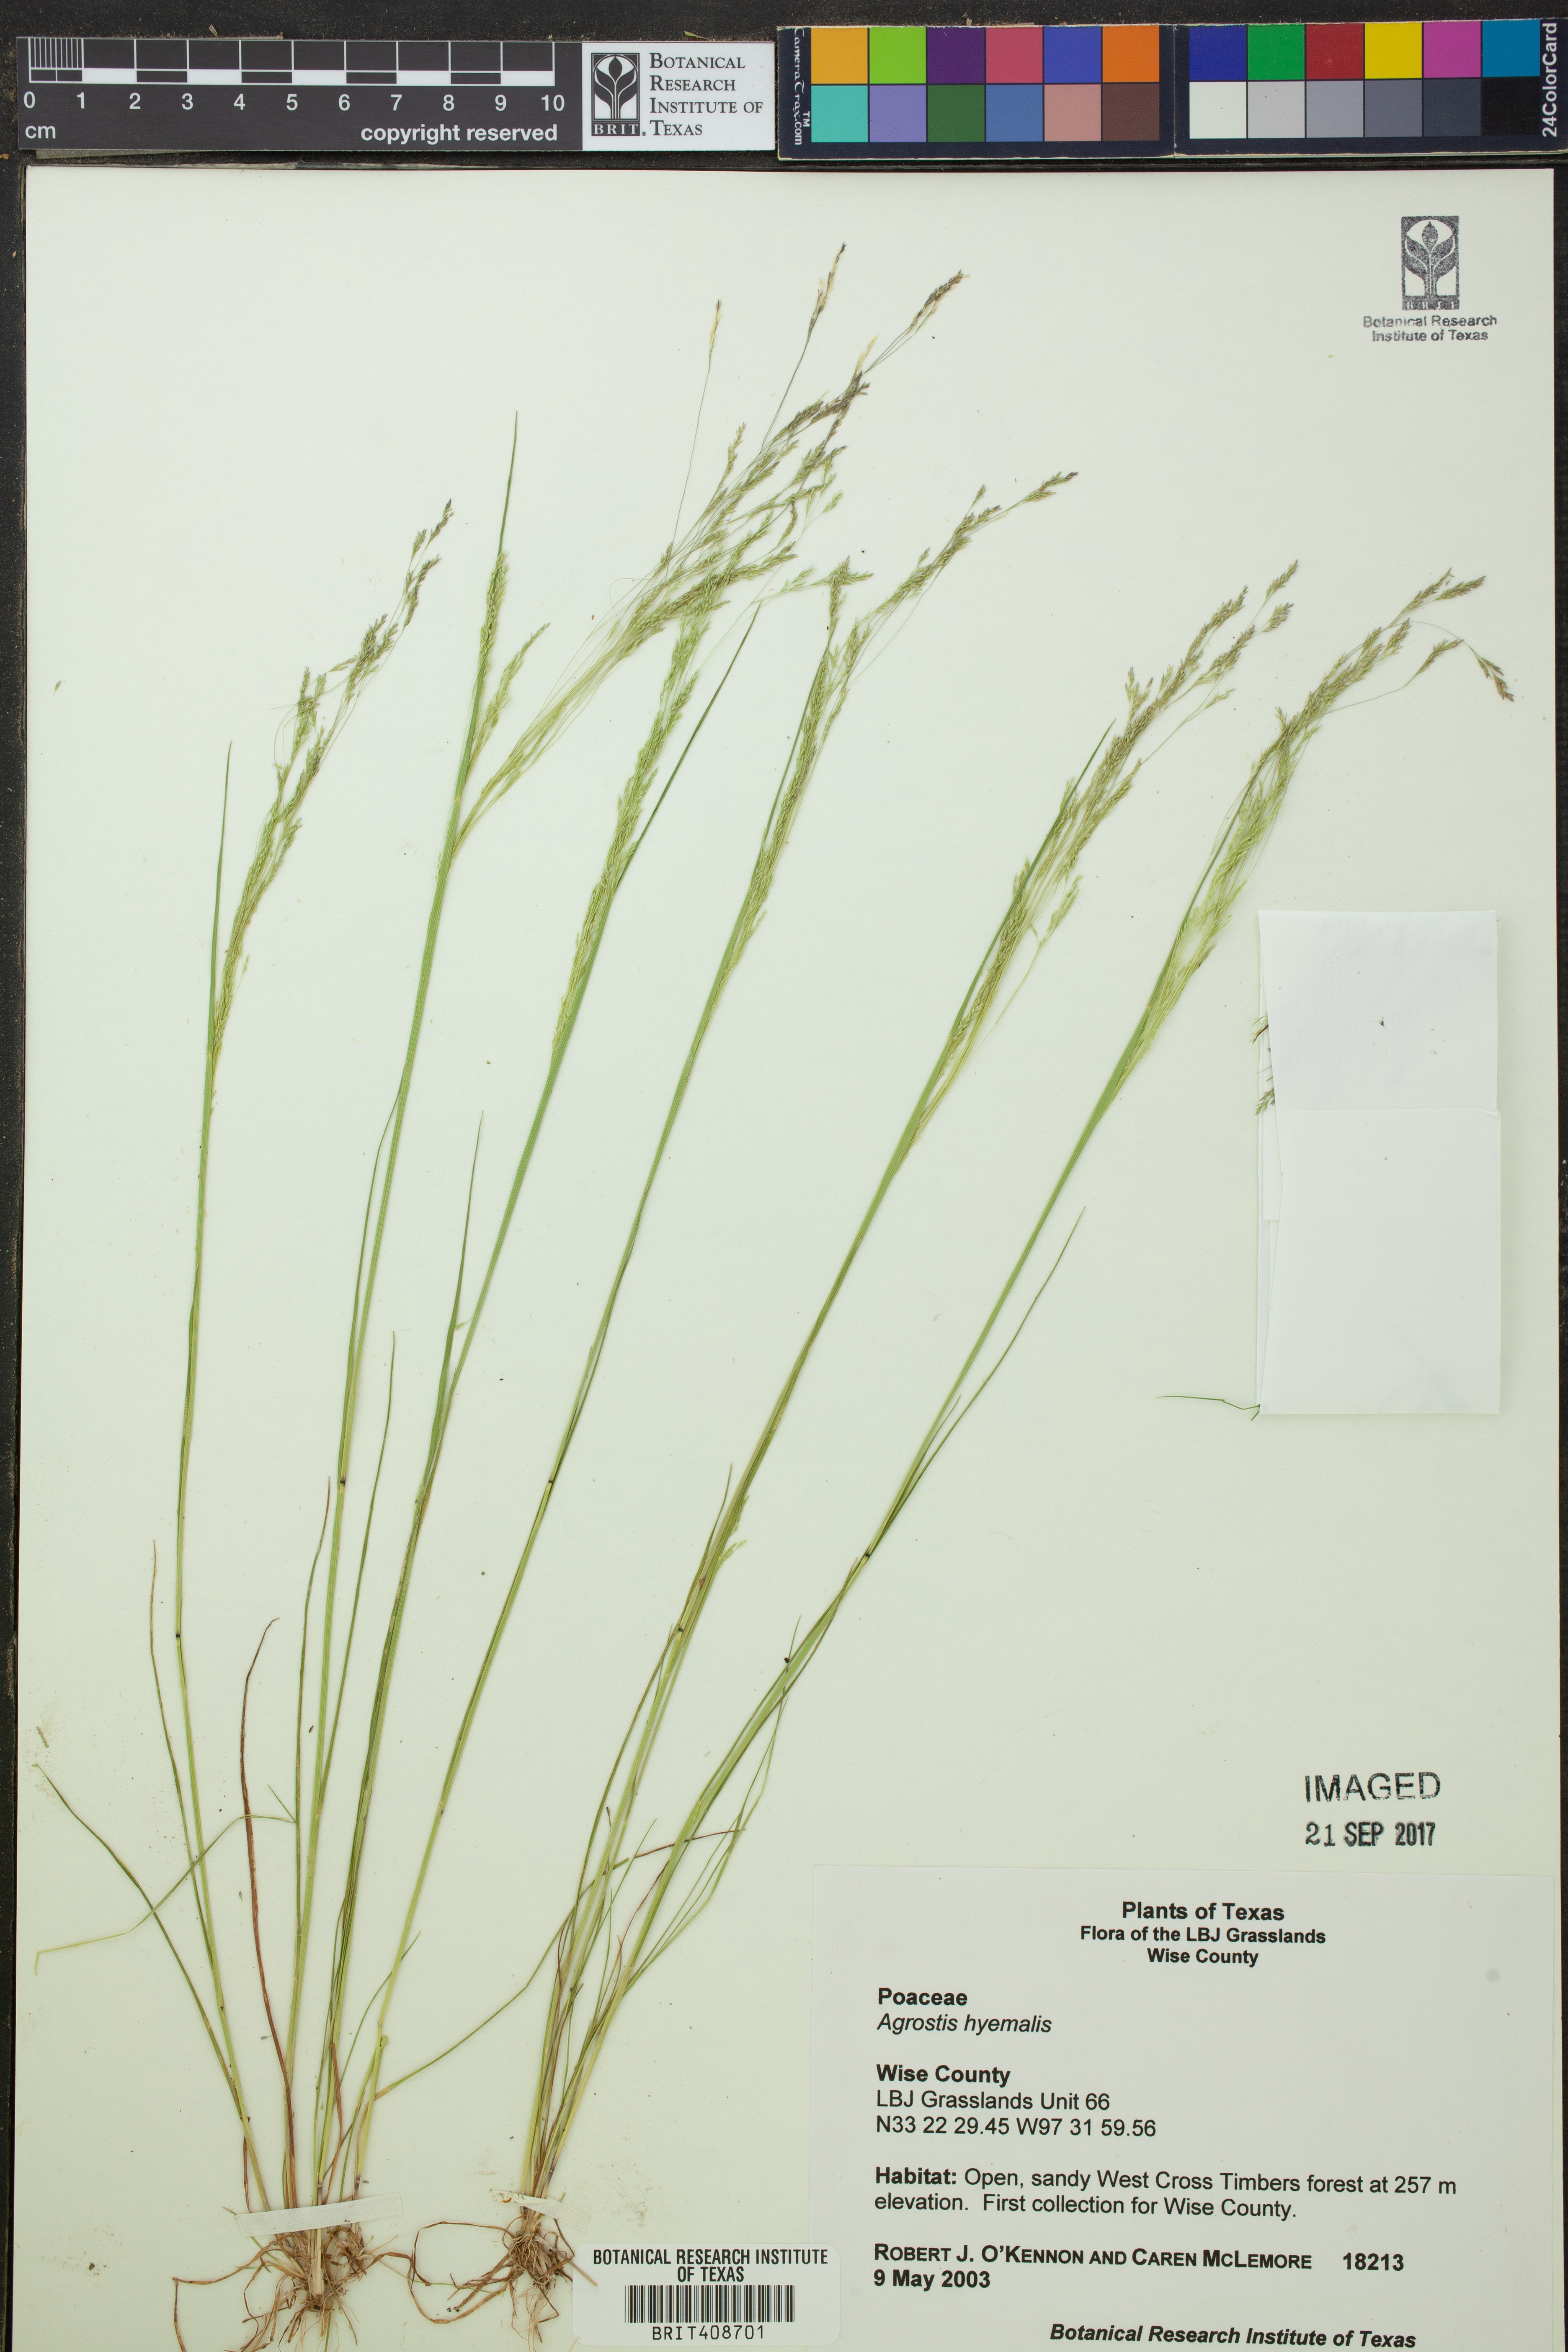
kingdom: Plantae
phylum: Tracheophyta
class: Liliopsida
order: Poales
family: Poaceae
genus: Agrostis
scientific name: Agrostis hyemalis
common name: Small bent
